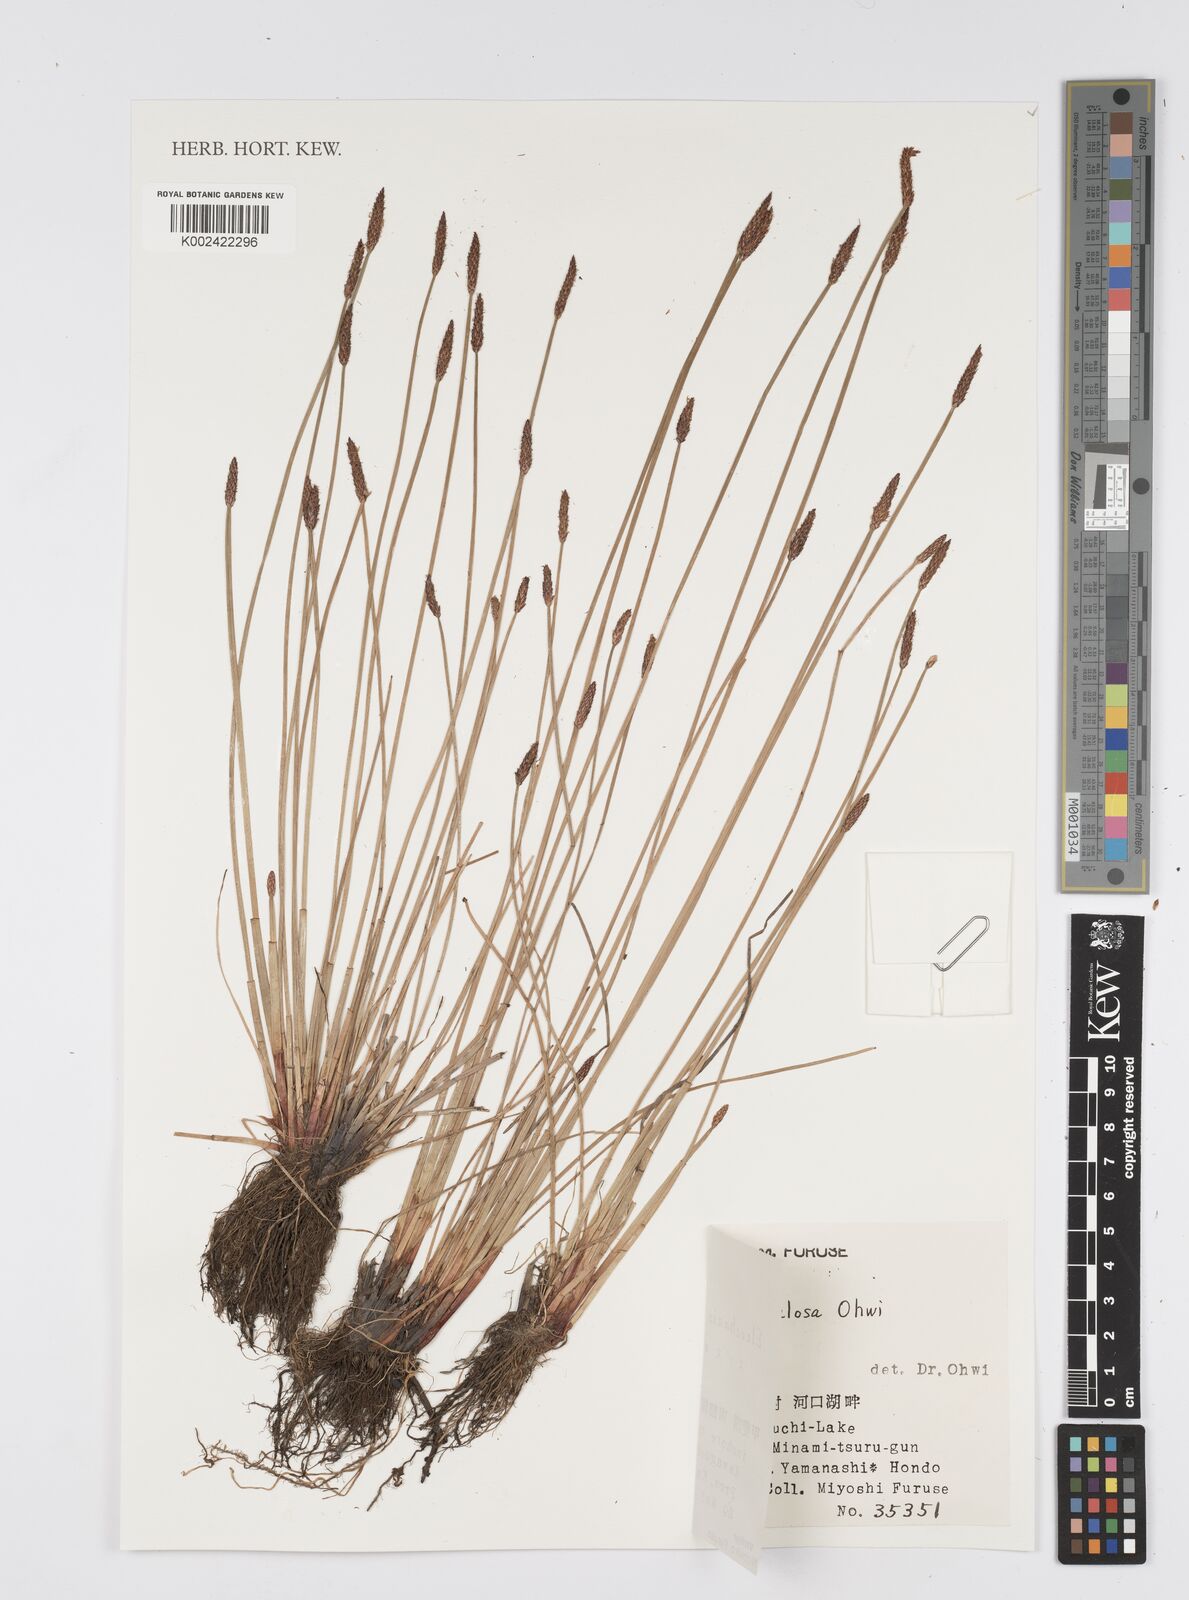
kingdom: Plantae
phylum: Tracheophyta
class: Liliopsida
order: Poales
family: Cyperaceae
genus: Eleocharis
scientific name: Eleocharis valleculosa
